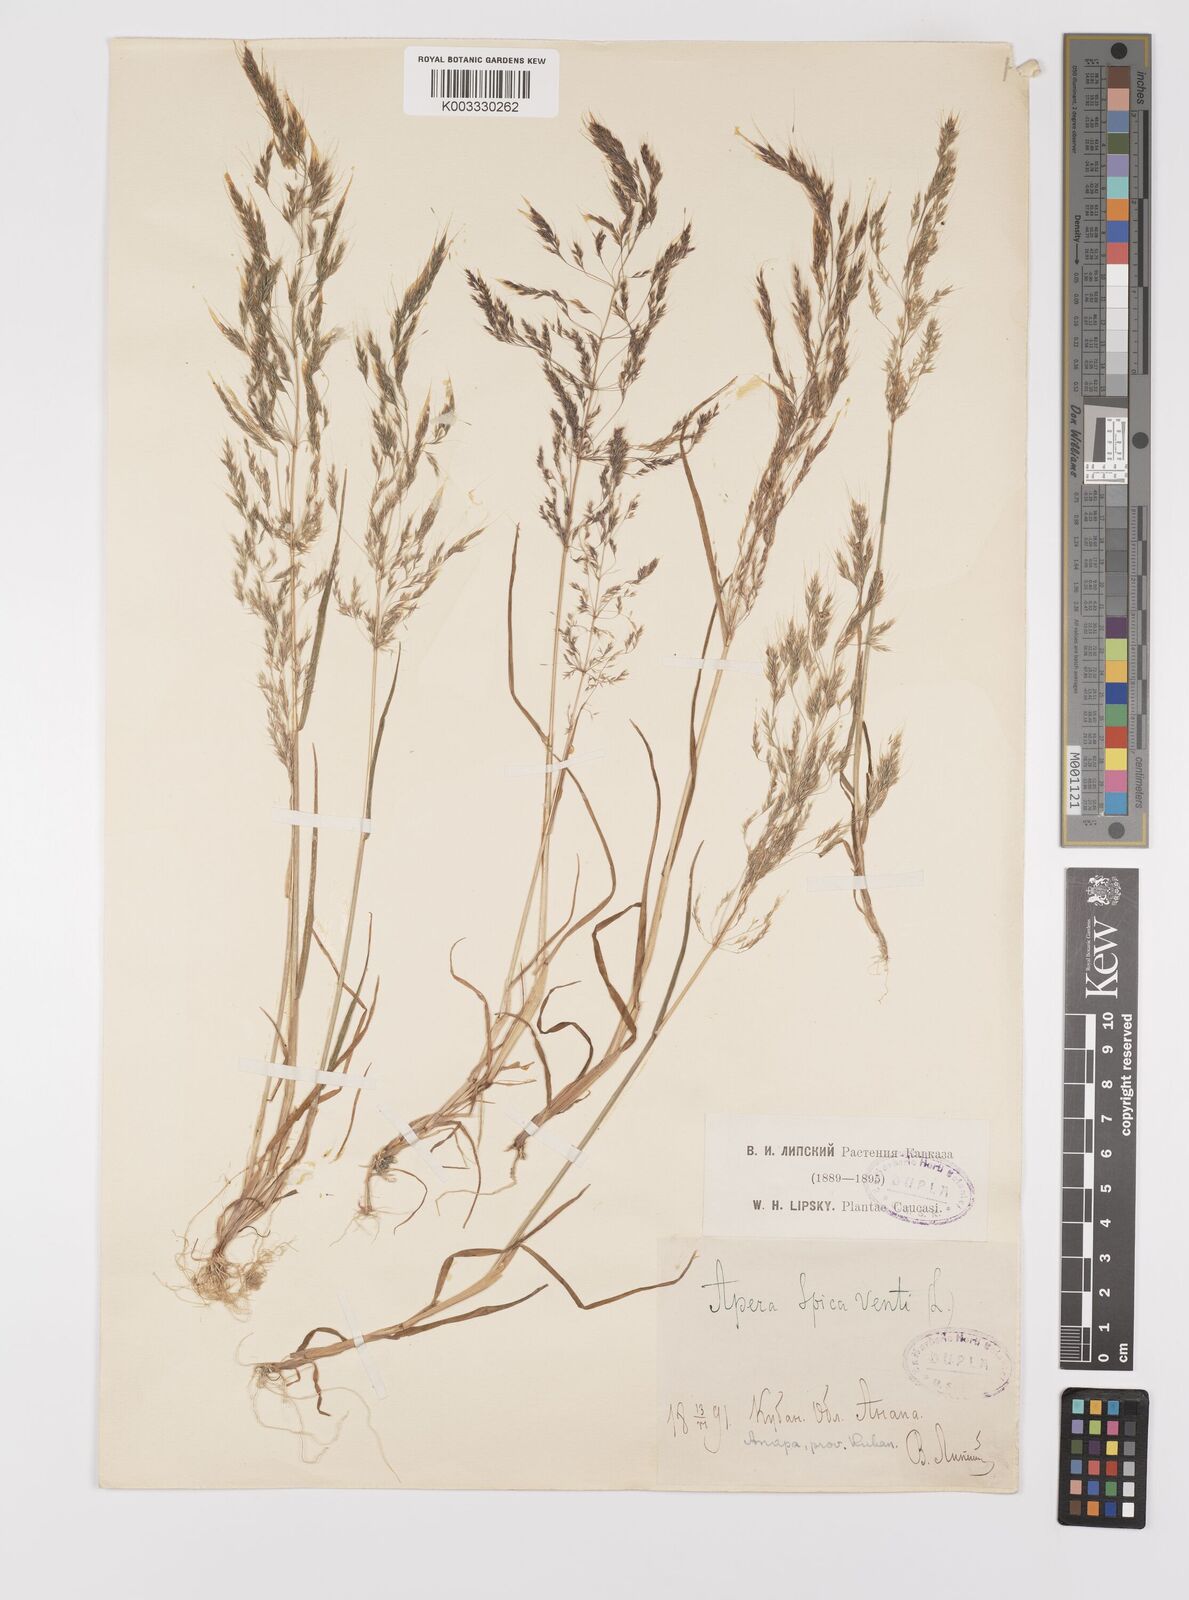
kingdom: Plantae
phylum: Tracheophyta
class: Liliopsida
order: Poales
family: Poaceae
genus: Apera
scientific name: Apera spica-venti
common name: Loose silky-bent
